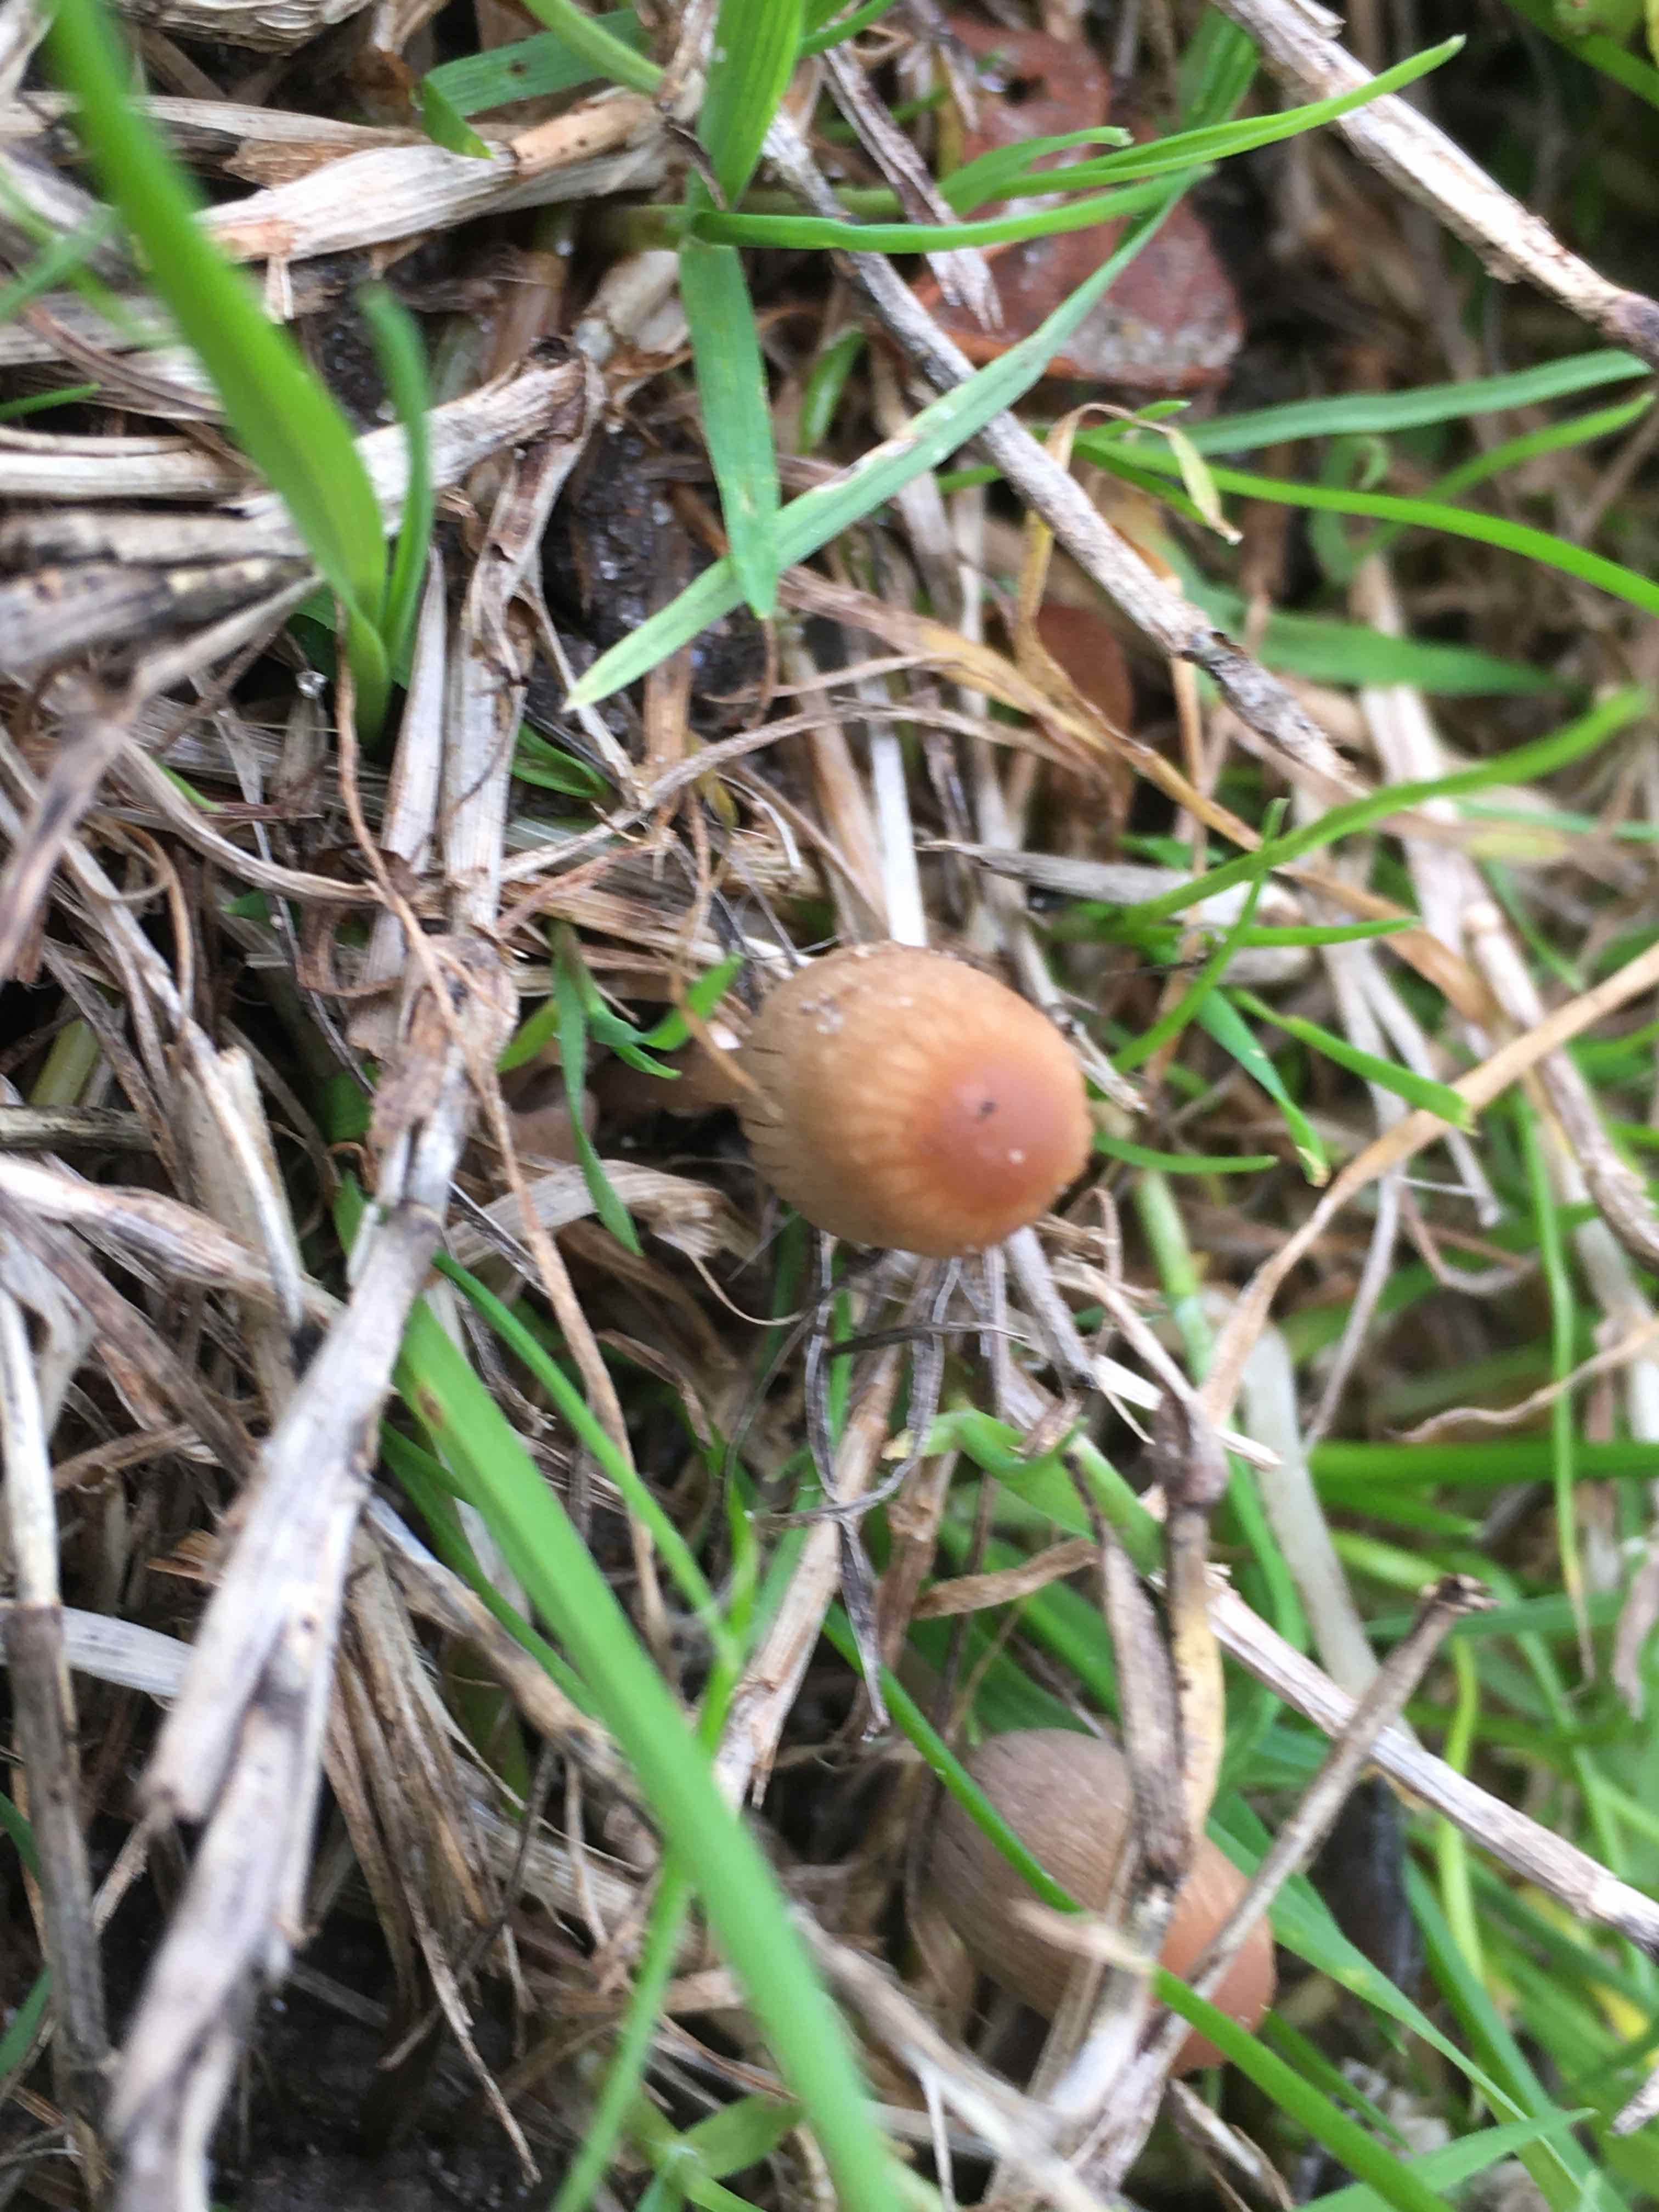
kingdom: Fungi
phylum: Basidiomycota
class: Agaricomycetes
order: Agaricales
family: Psathyrellaceae
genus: Parasola
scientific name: Parasola
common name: hjulhat
